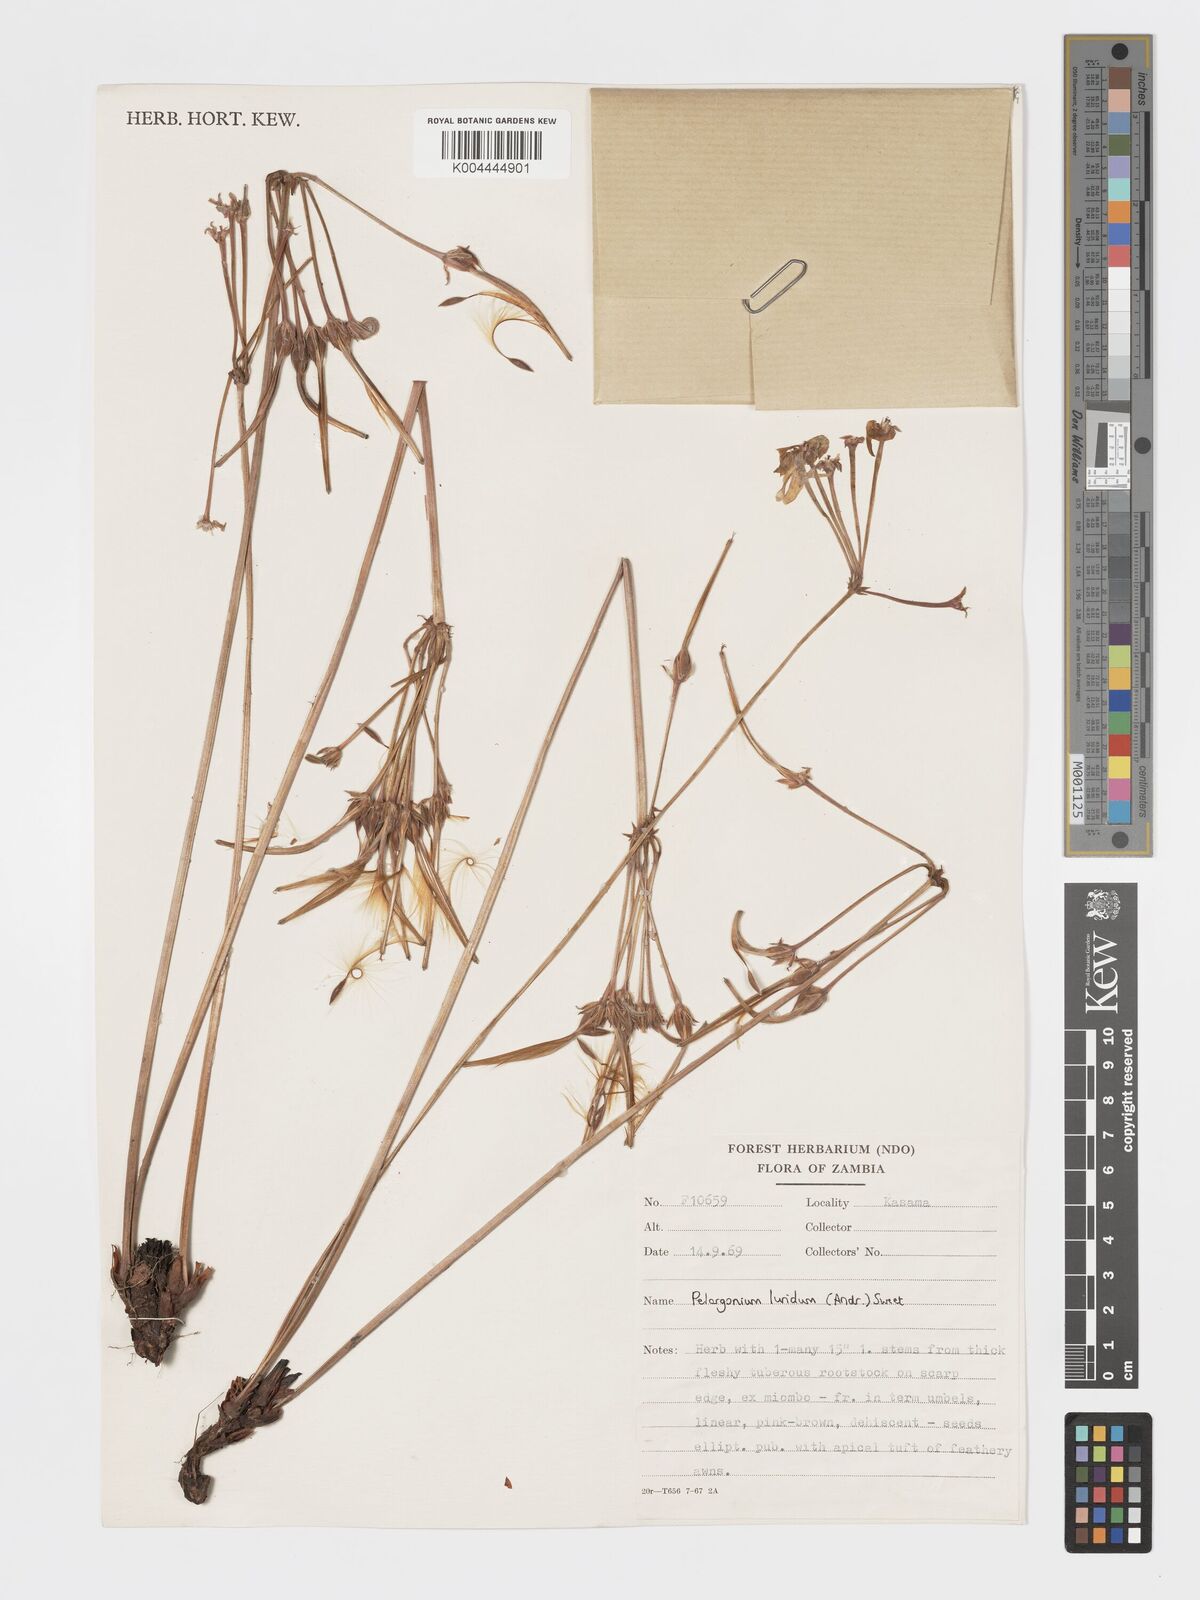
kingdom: Plantae
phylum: Tracheophyta
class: Magnoliopsida
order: Geraniales
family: Geraniaceae
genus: Pelargonium
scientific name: Pelargonium luridum
